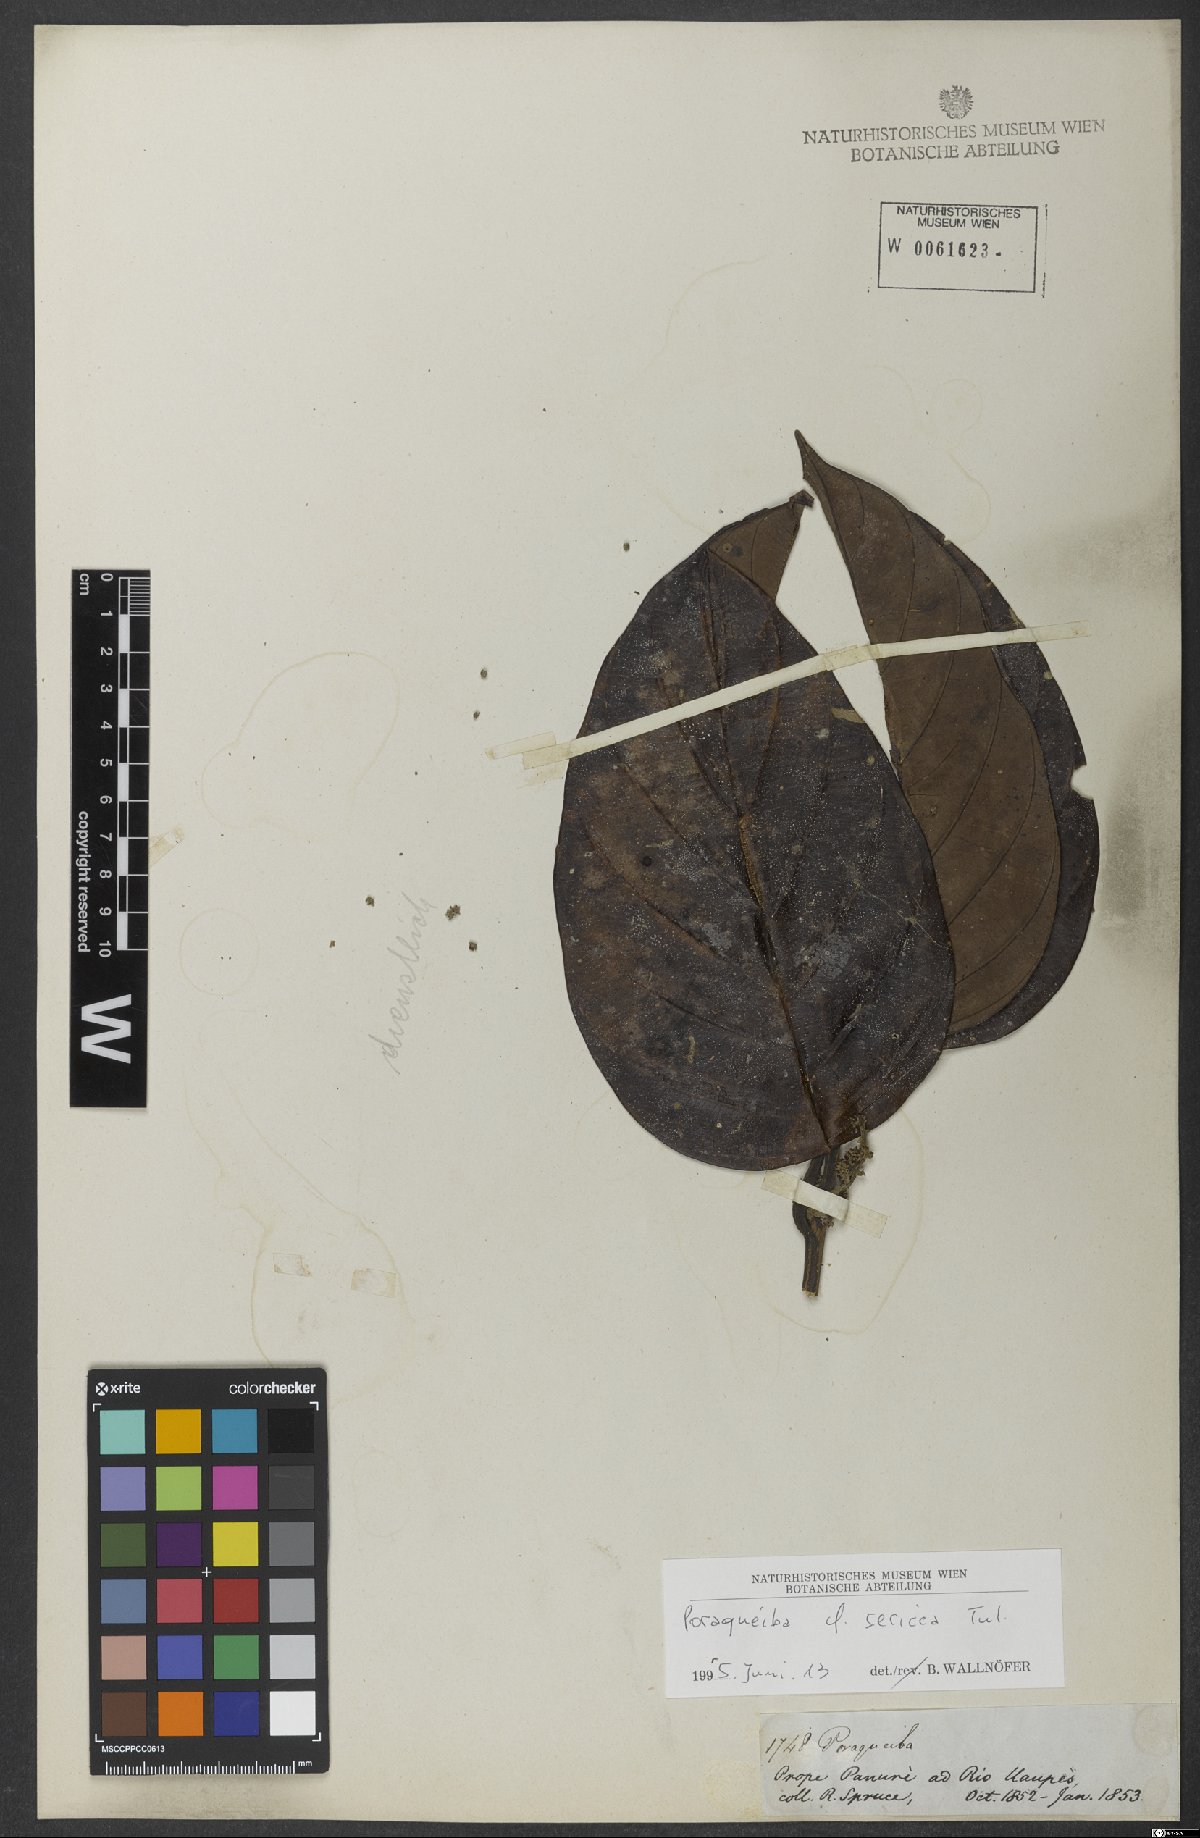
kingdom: Plantae
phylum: Tracheophyta
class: Magnoliopsida
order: Metteniusales
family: Metteniusaceae
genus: Poraqueiba
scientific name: Poraqueiba sericea
